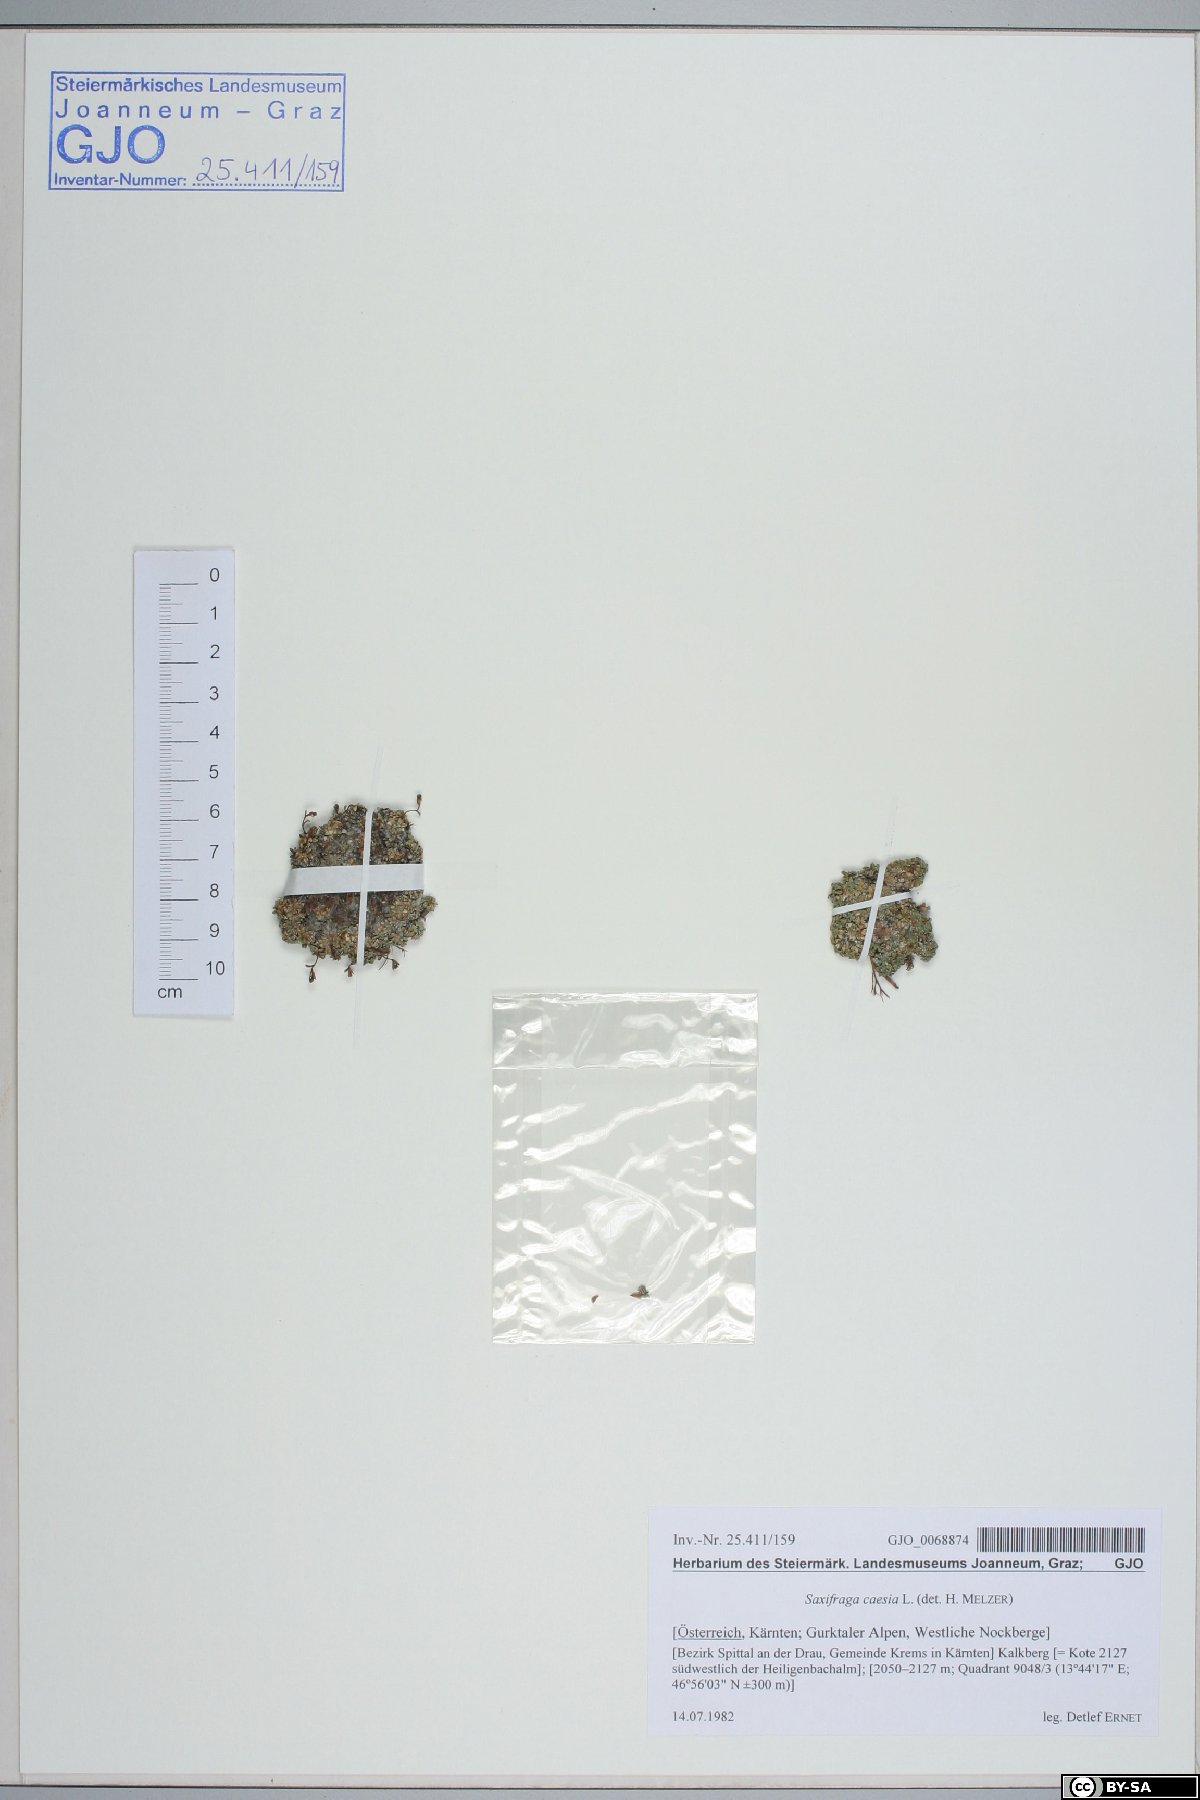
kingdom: Plantae
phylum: Tracheophyta
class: Magnoliopsida
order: Saxifragales
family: Saxifragaceae
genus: Saxifraga
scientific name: Saxifraga caesia
